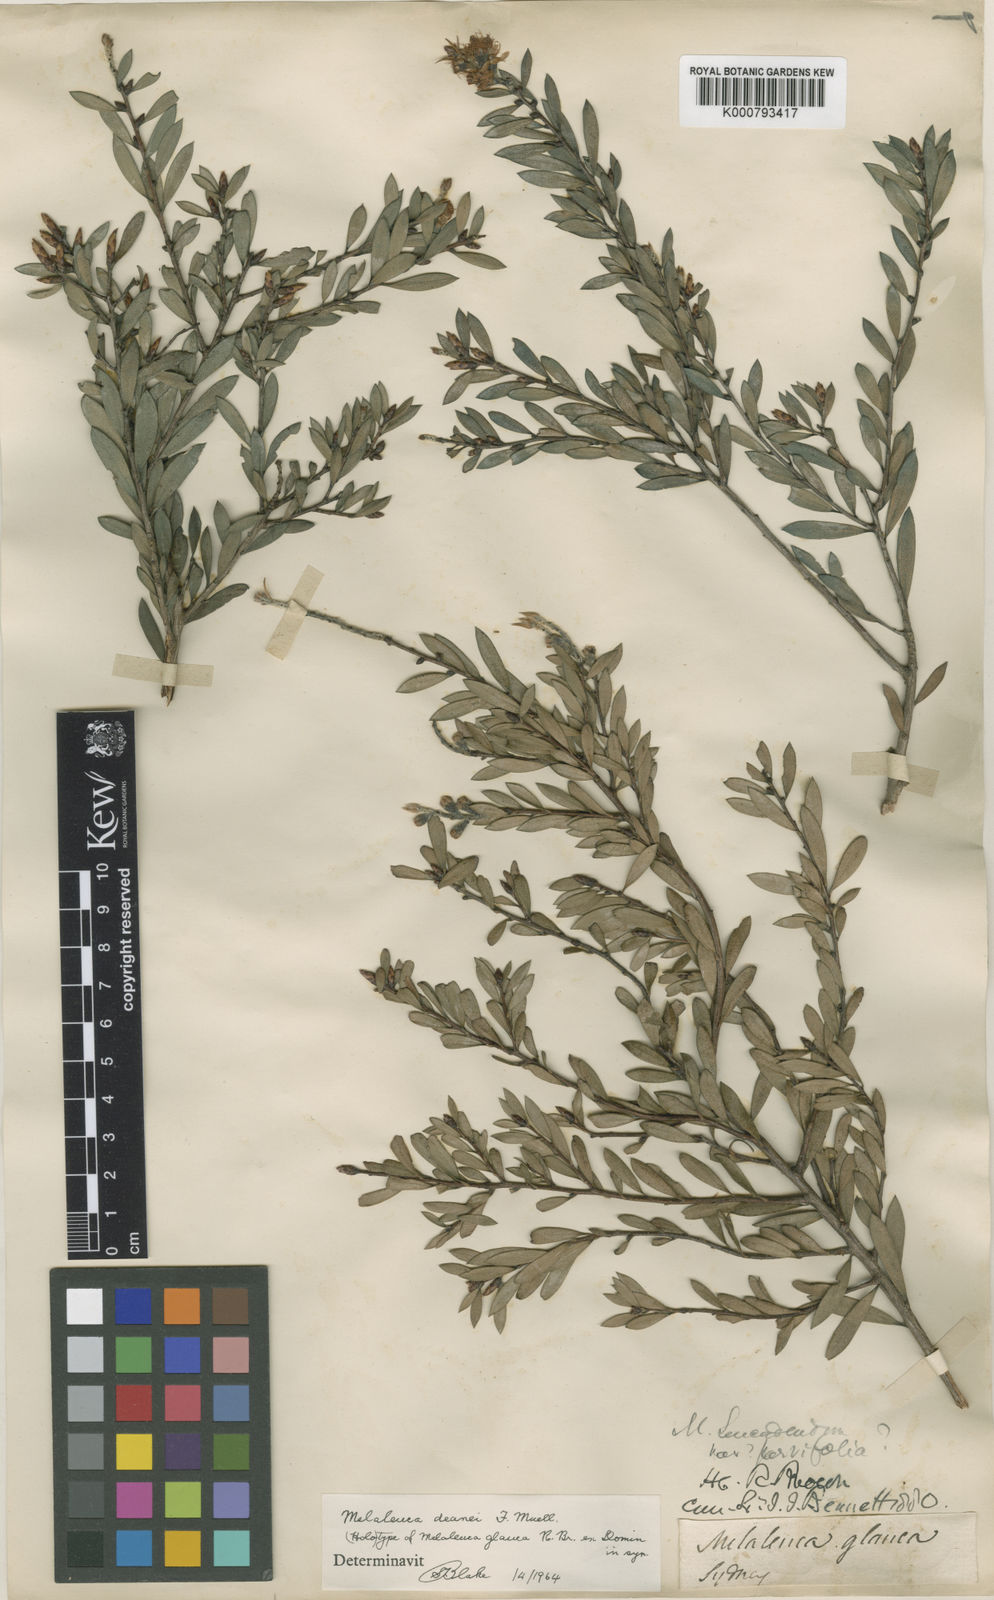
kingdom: Plantae
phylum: Tracheophyta
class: Magnoliopsida
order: Myrtales
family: Myrtaceae
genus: Melaleuca
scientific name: Melaleuca deanei
